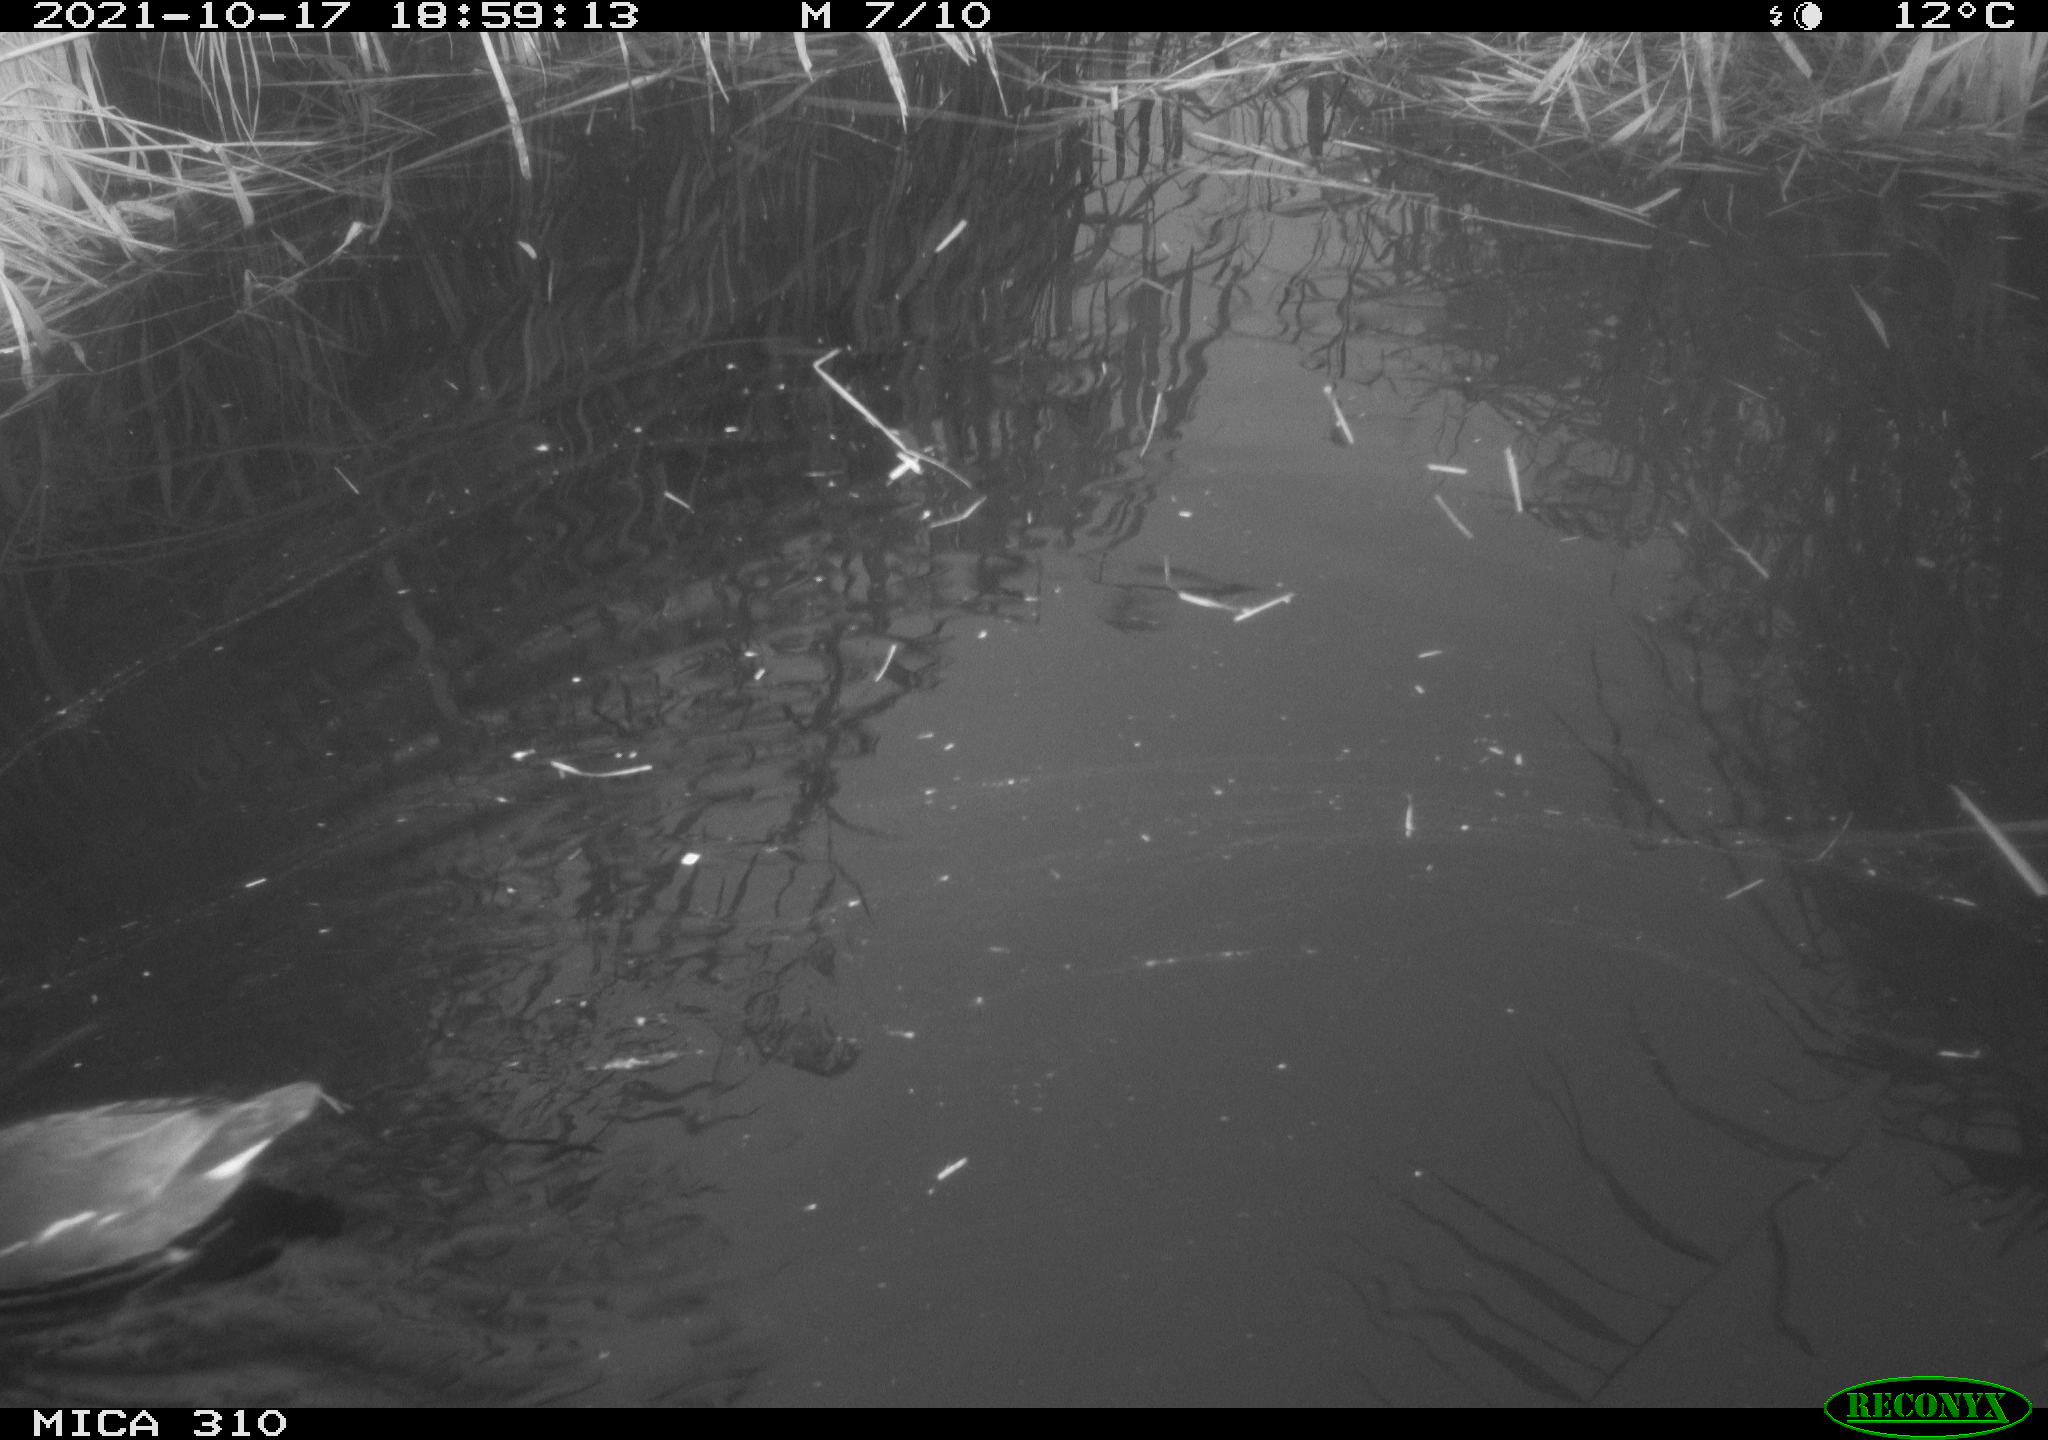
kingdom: Animalia
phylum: Chordata
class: Aves
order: Gruiformes
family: Rallidae
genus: Gallinula
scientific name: Gallinula chloropus
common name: Common moorhen
